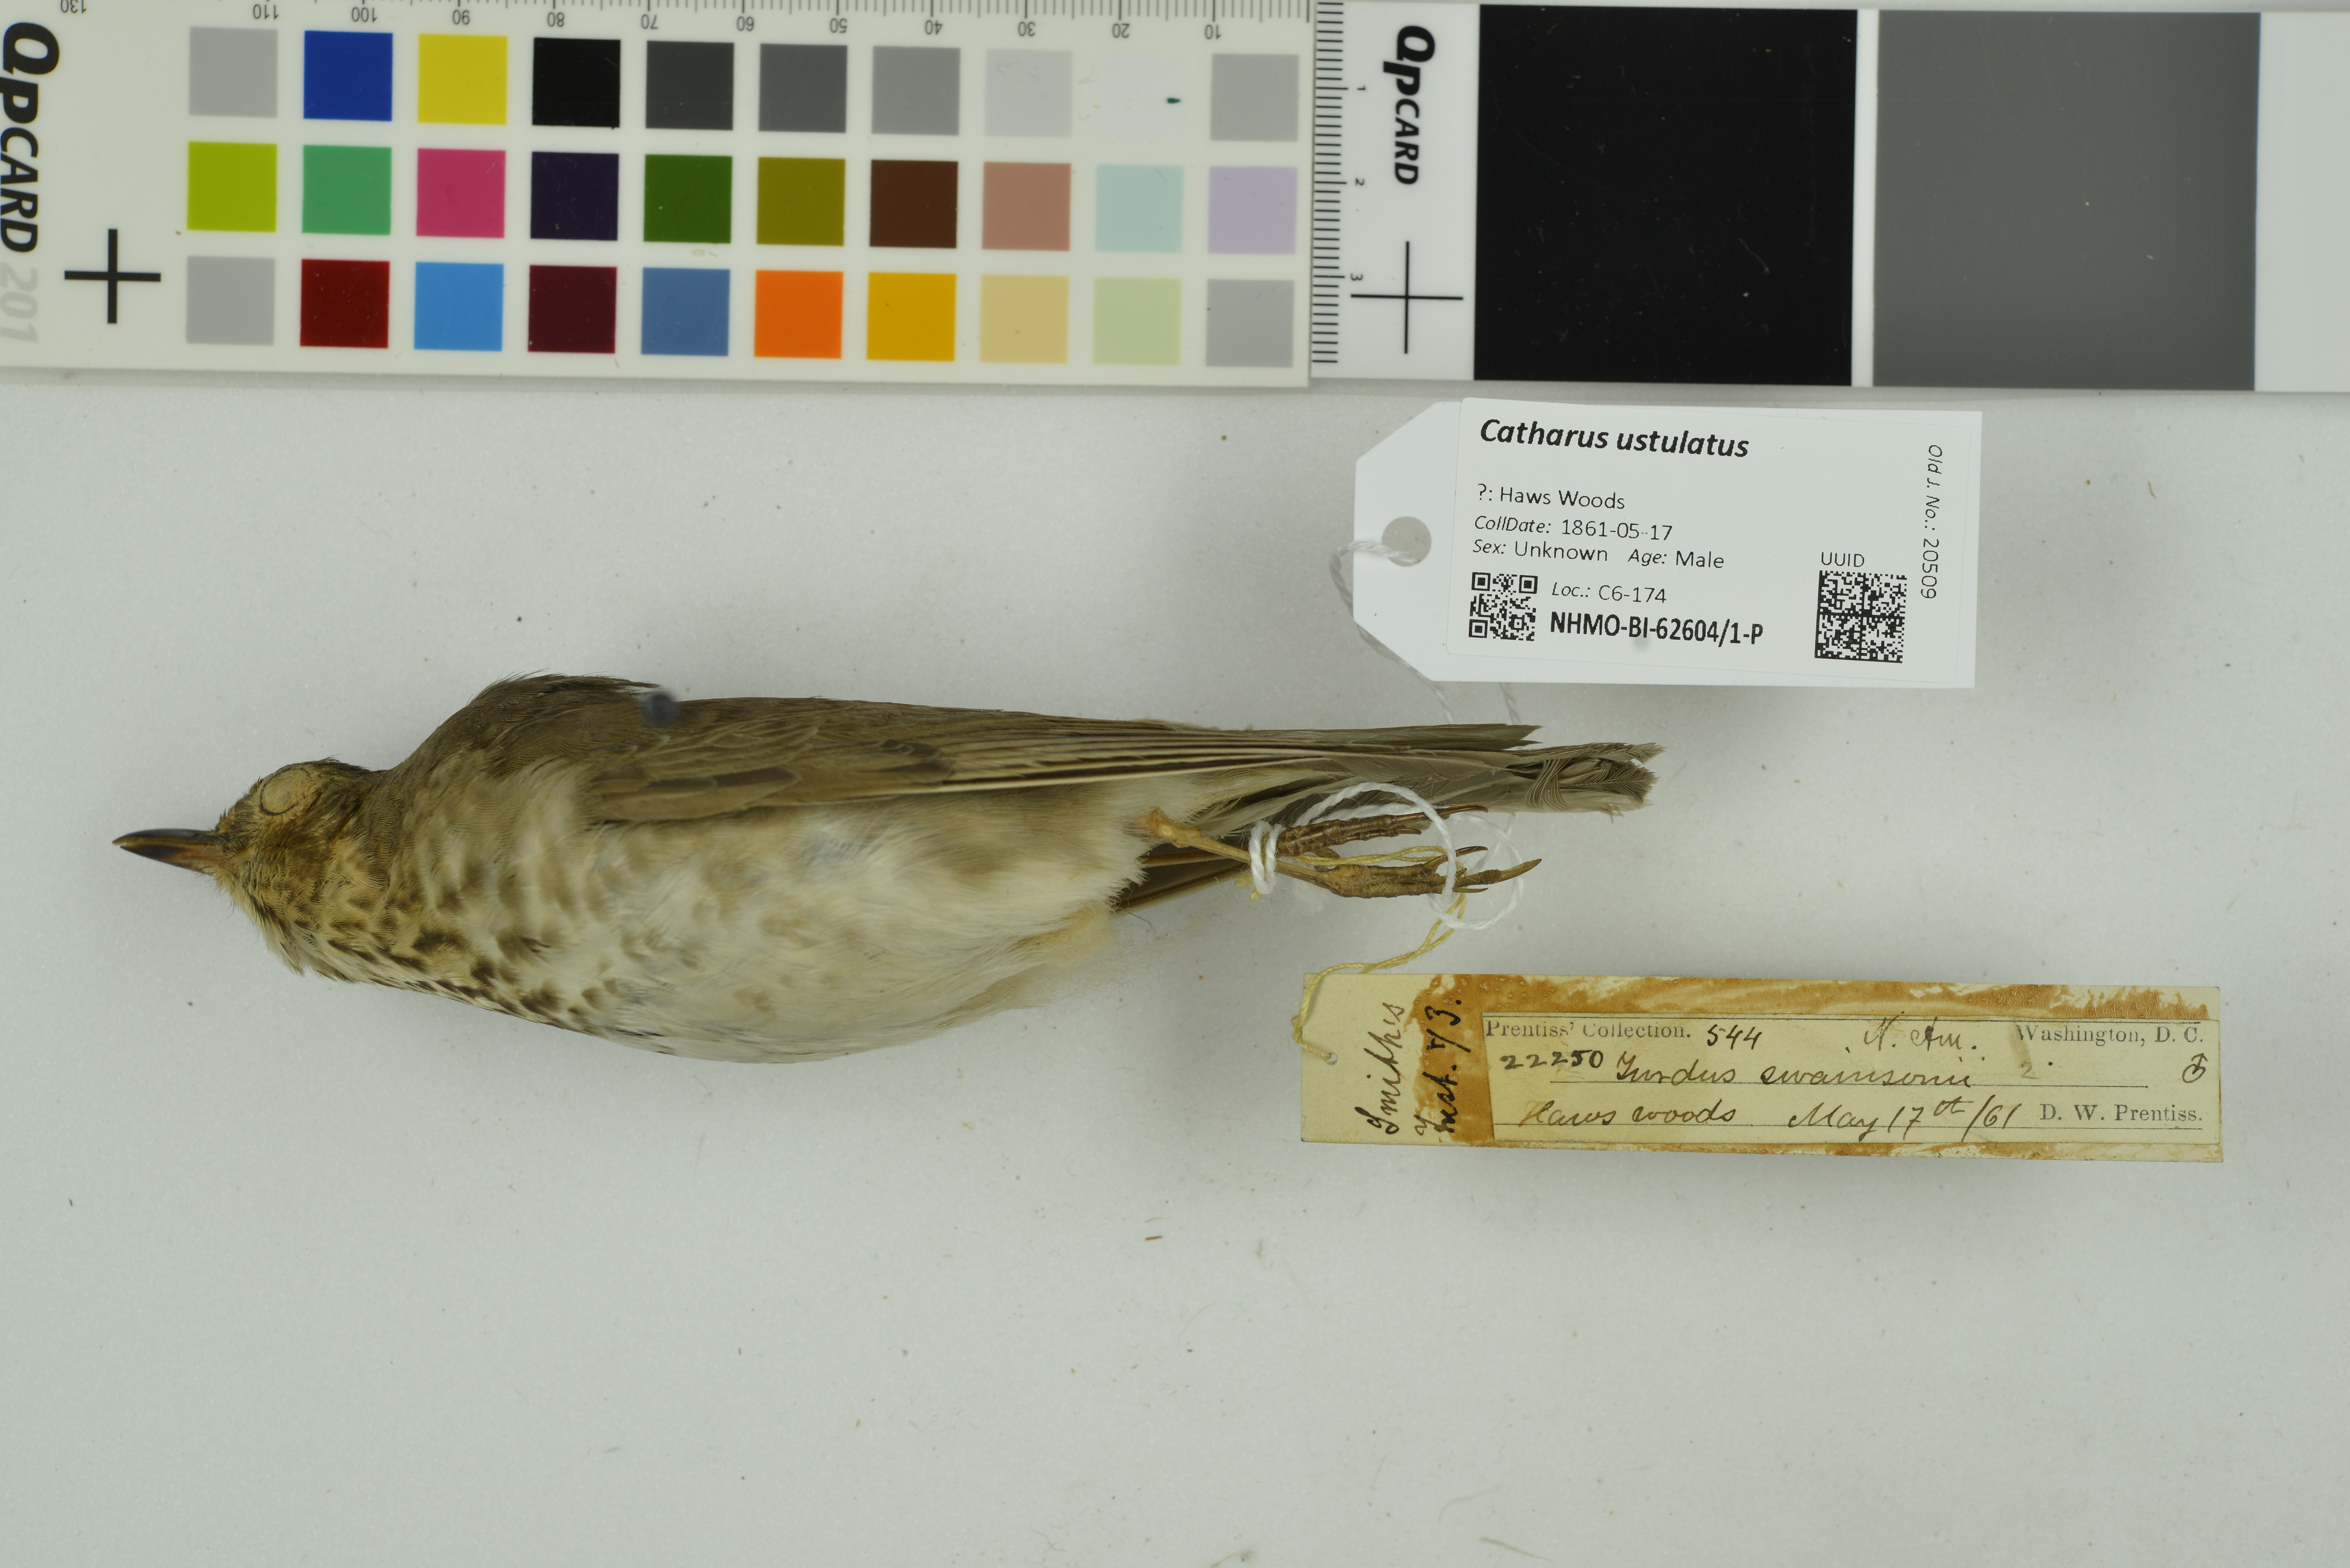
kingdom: Animalia
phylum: Chordata
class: Aves
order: Passeriformes
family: Turdidae
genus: Catharus
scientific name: Catharus ustulatus
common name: Swainson's thrush
